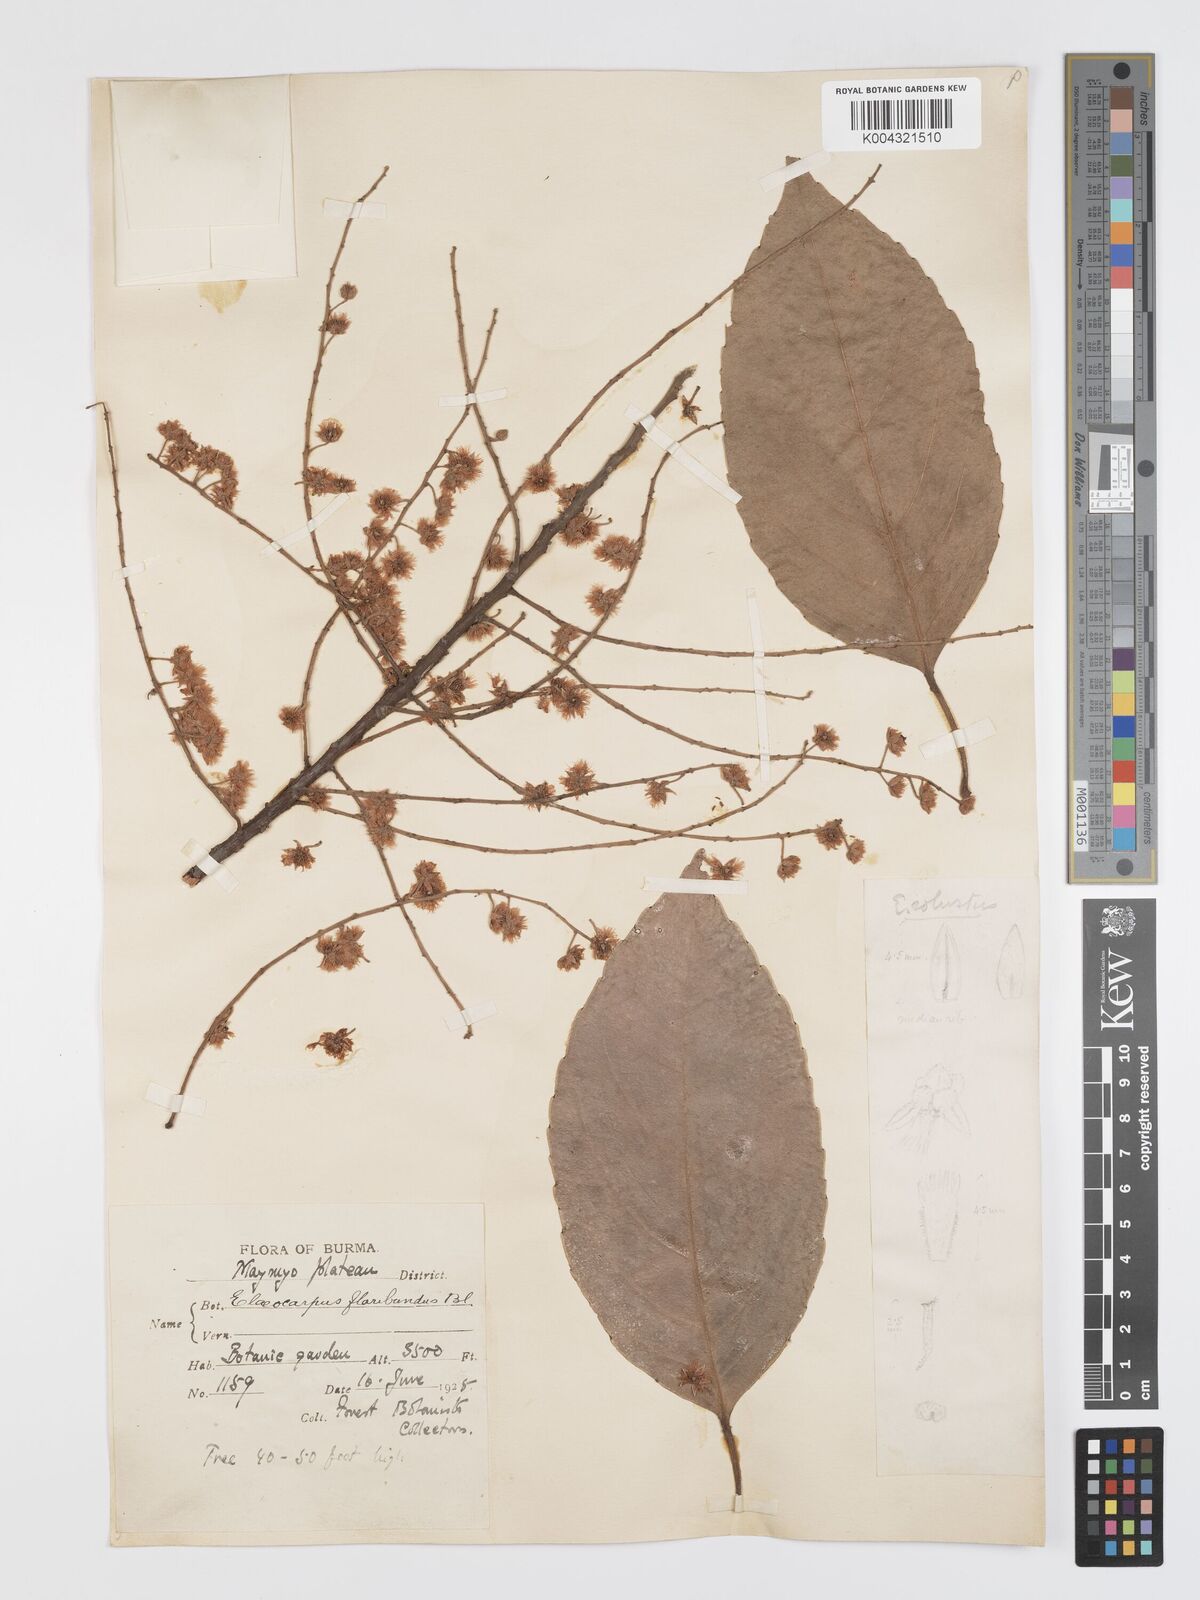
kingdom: Plantae
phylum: Tracheophyta
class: Magnoliopsida
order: Oxalidales
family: Elaeocarpaceae
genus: Elaeocarpus
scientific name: Elaeocarpus floribundus
